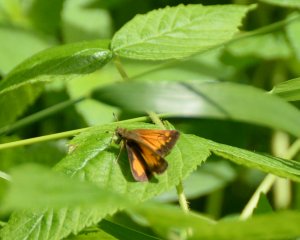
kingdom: Animalia
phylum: Arthropoda
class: Insecta
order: Lepidoptera
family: Hesperiidae
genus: Lon
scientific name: Lon hobomok
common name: Hobomok Skipper
